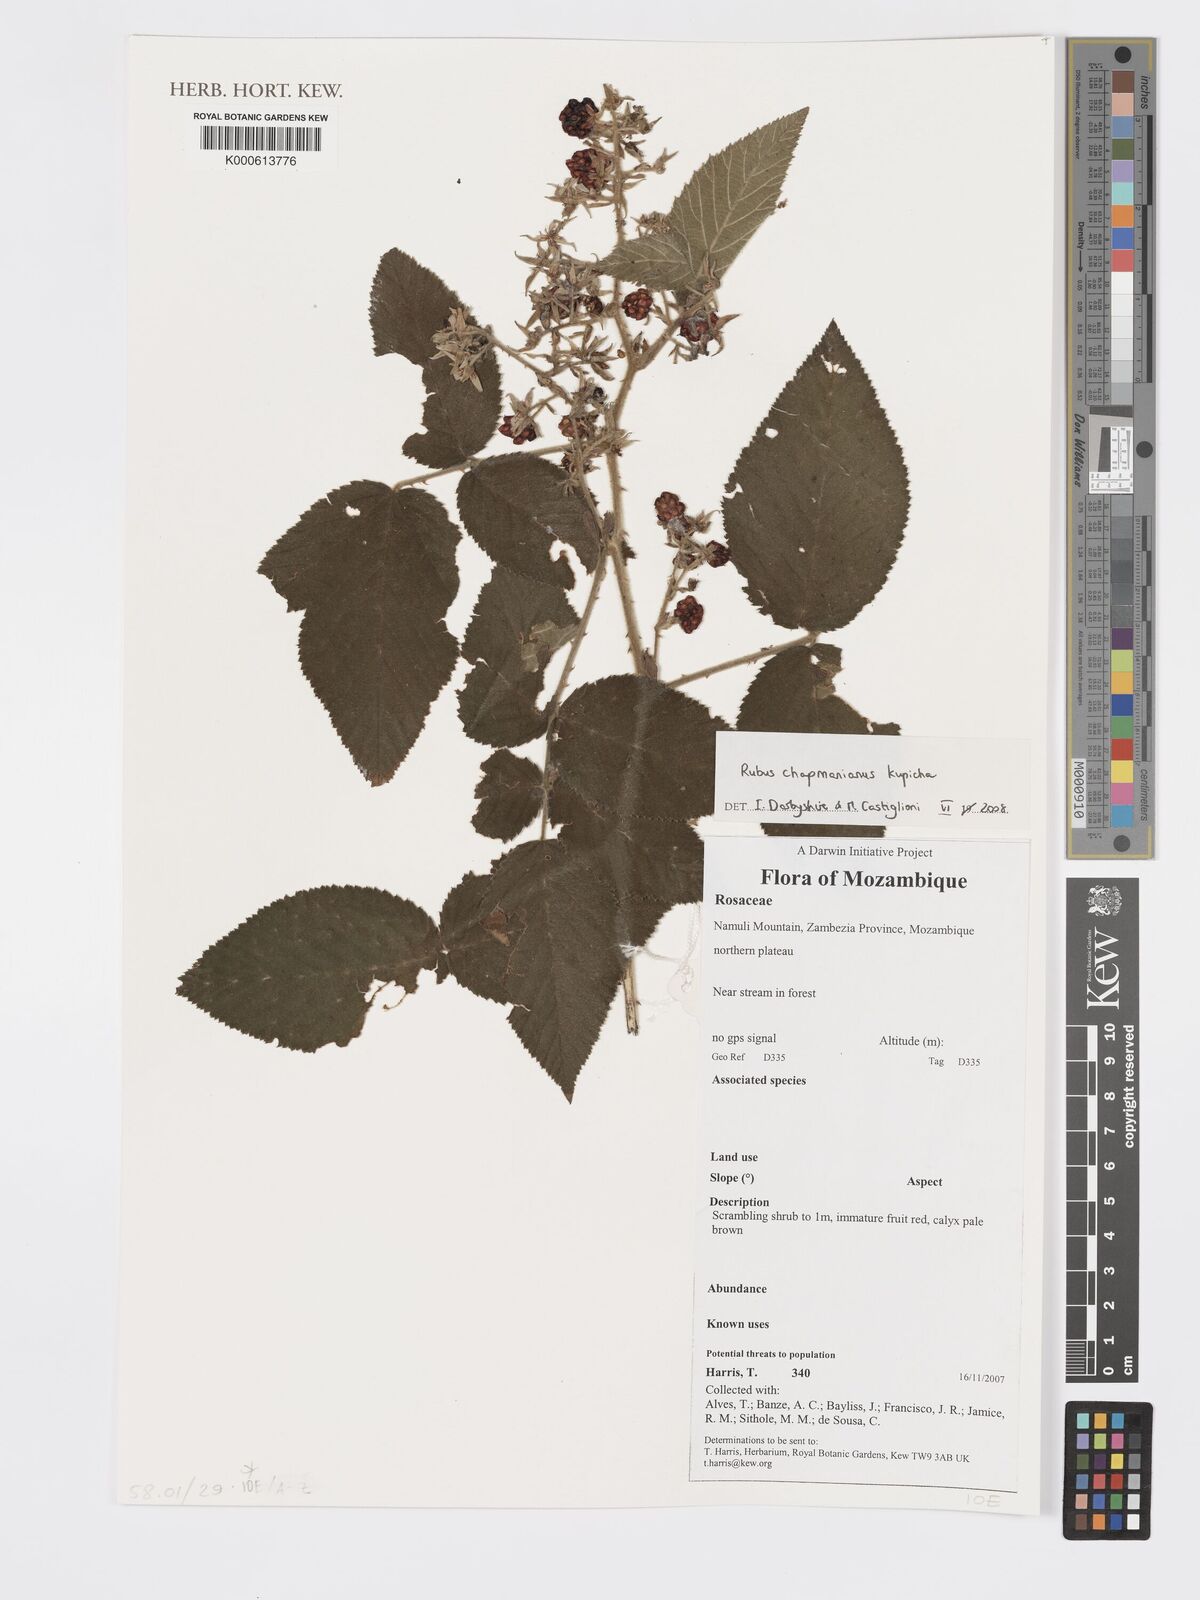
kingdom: Plantae
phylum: Tracheophyta
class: Magnoliopsida
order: Rosales
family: Rosaceae
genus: Rubus
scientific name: Rubus chapmanianus
